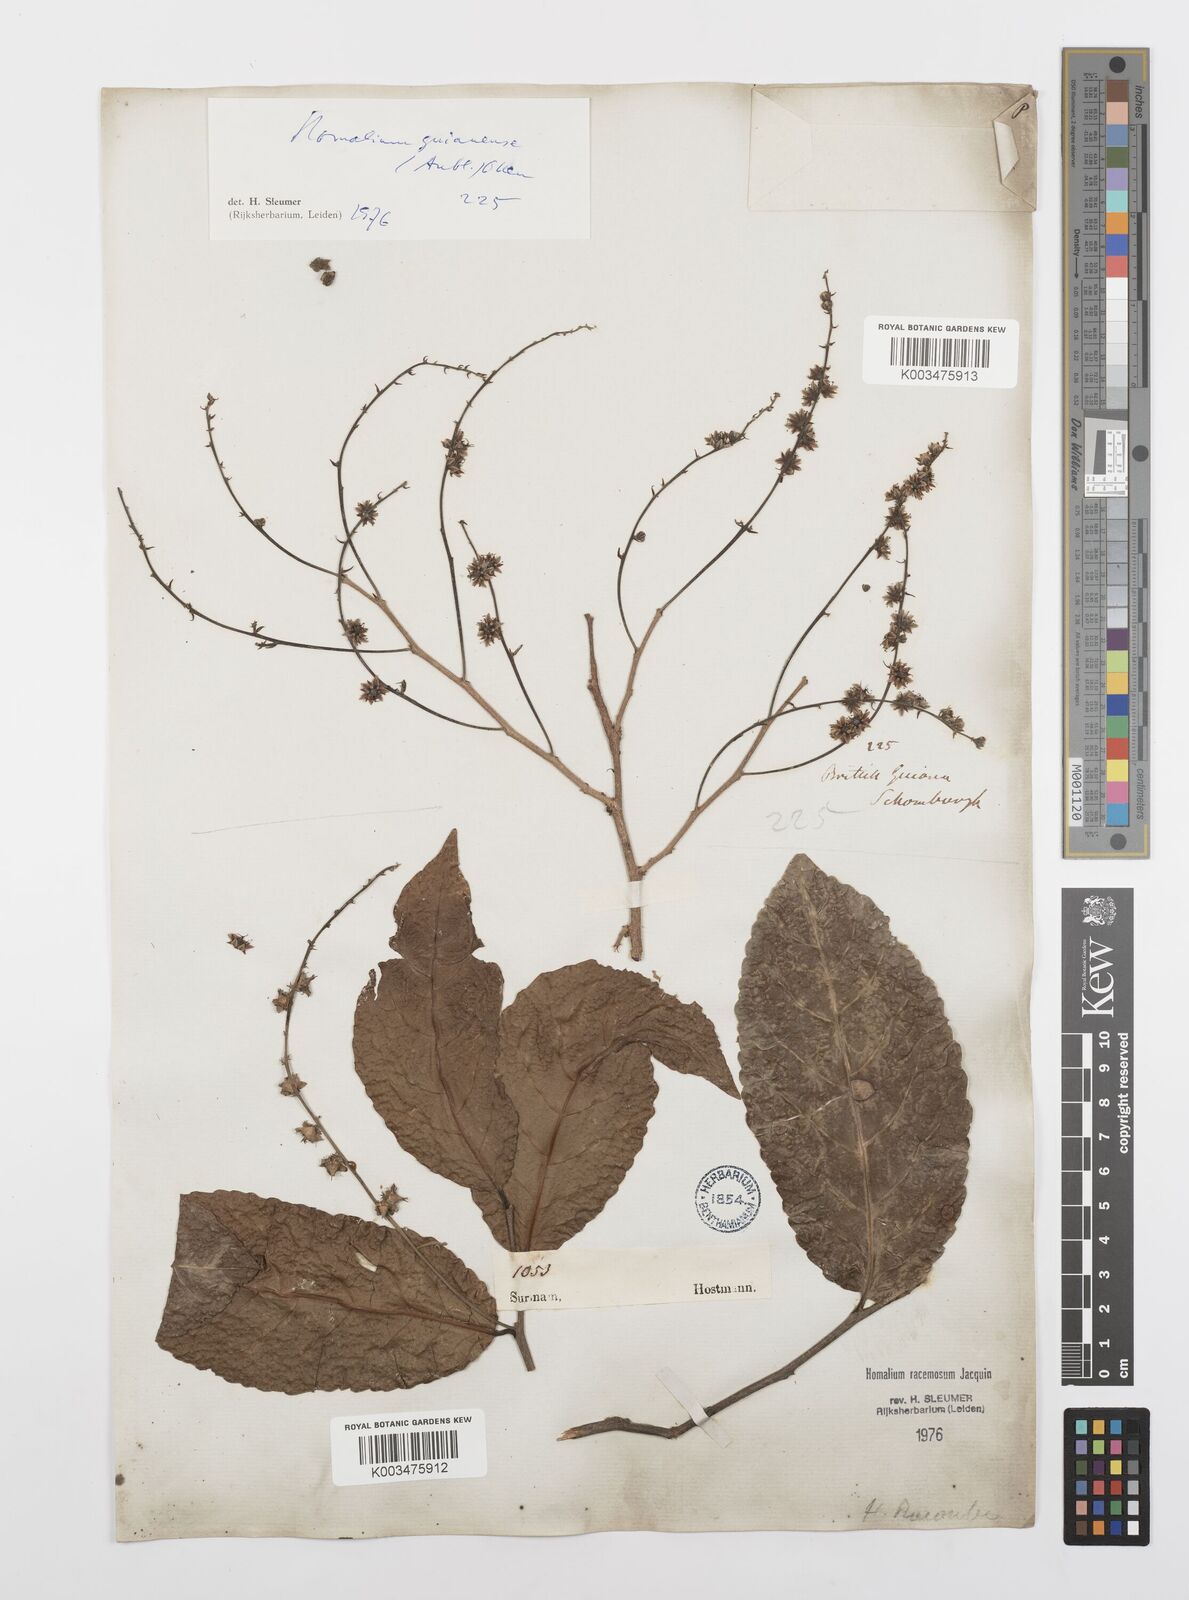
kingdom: Plantae
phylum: Tracheophyta
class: Magnoliopsida
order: Malpighiales
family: Salicaceae
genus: Homalium
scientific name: Homalium guianense
